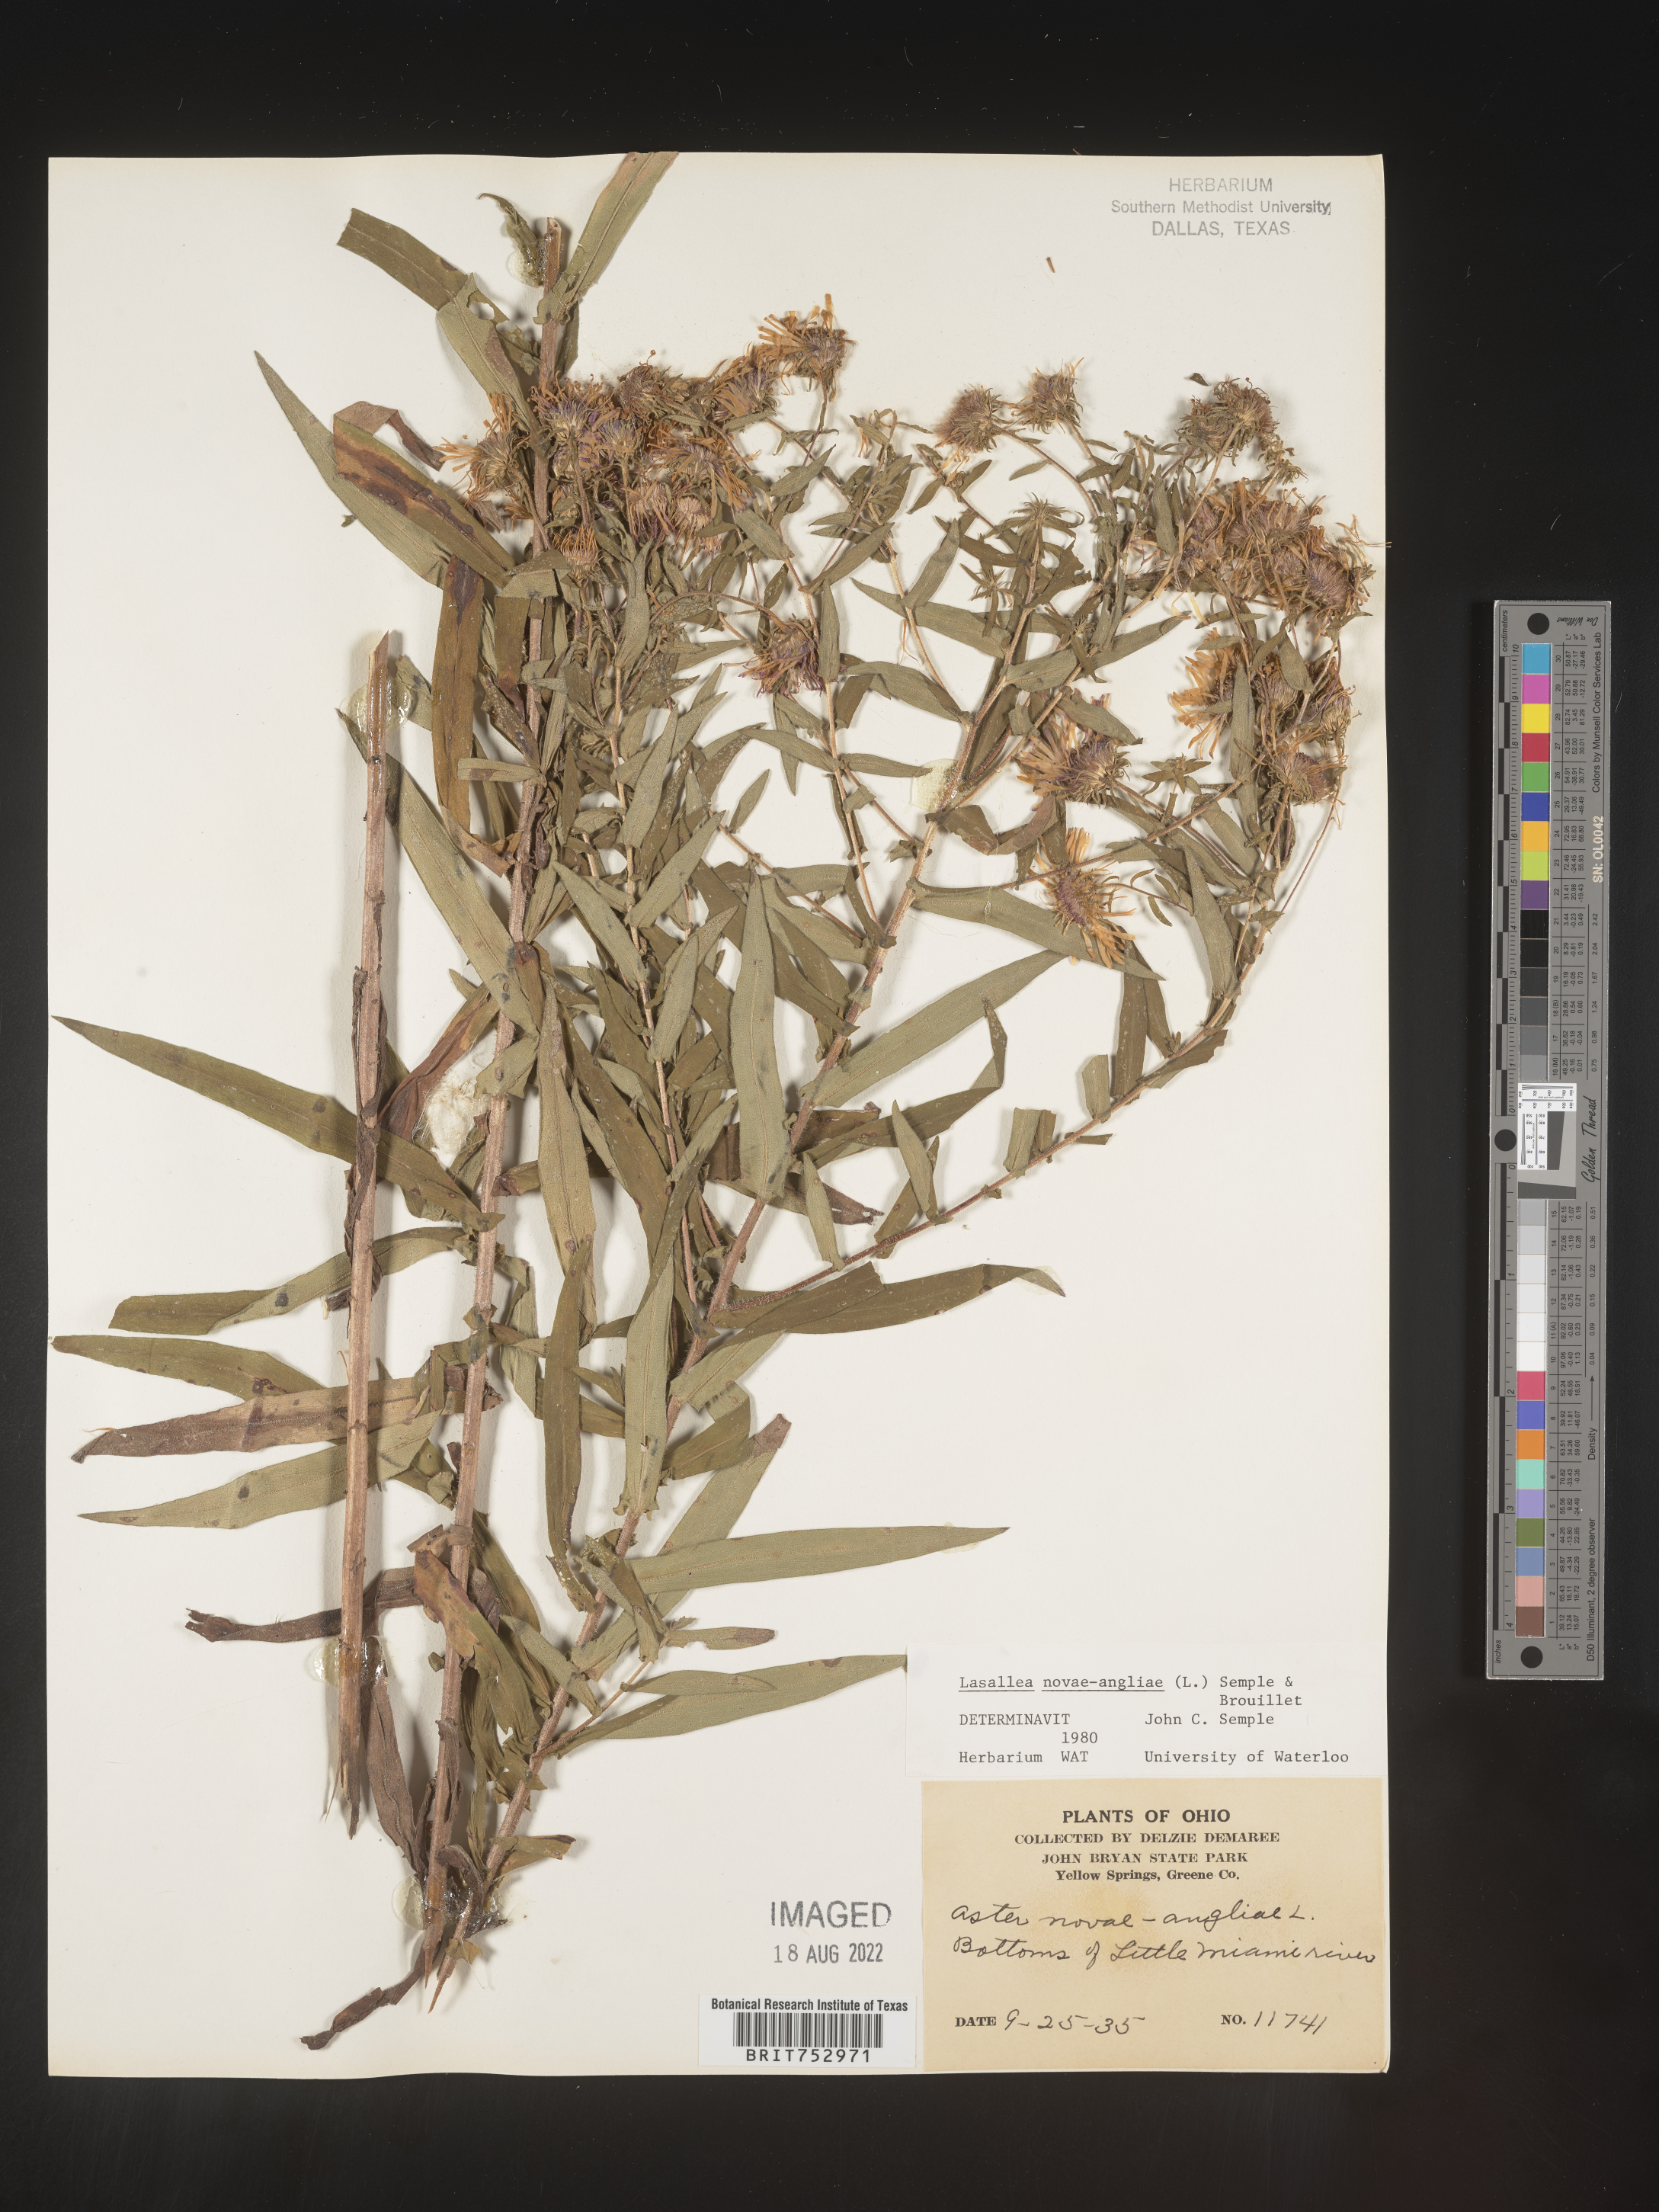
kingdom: Plantae
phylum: Tracheophyta
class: Magnoliopsida
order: Asterales
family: Asteraceae
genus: Symphyotrichum
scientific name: Symphyotrichum novae-angliae
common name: Michaelmas daisy
